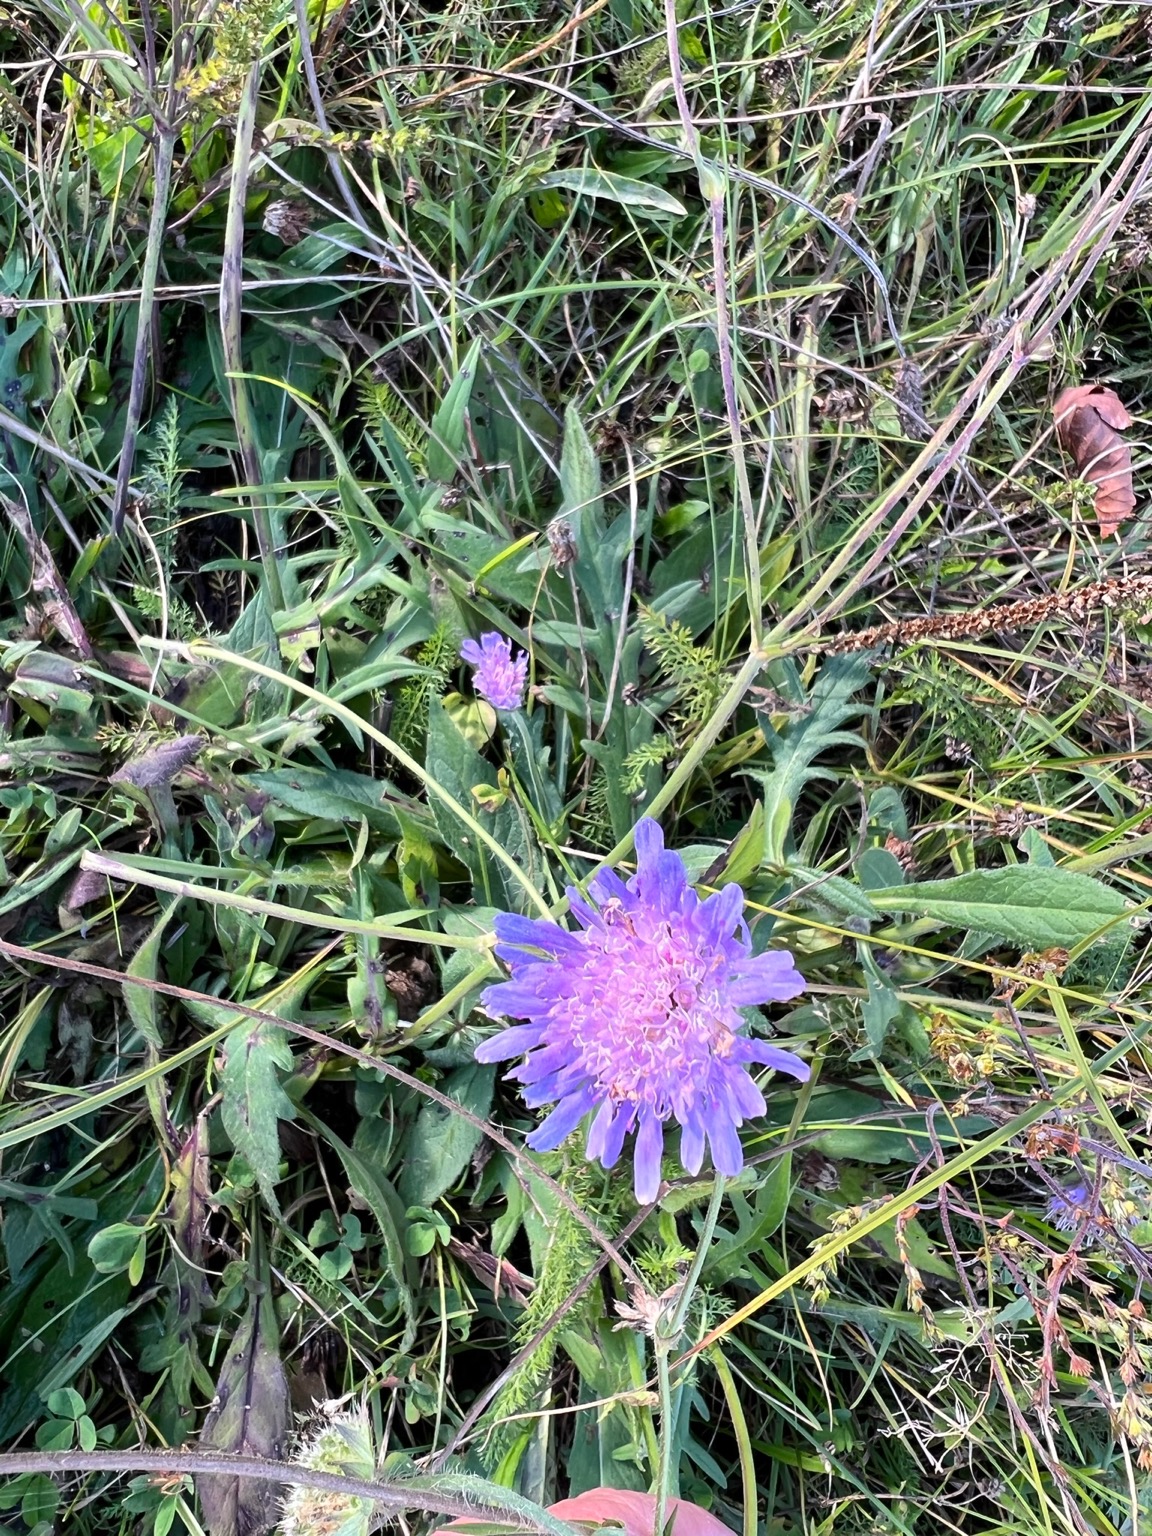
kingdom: Plantae
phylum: Tracheophyta
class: Magnoliopsida
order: Dipsacales
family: Caprifoliaceae
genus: Knautia
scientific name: Knautia arvensis
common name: Blåhat
